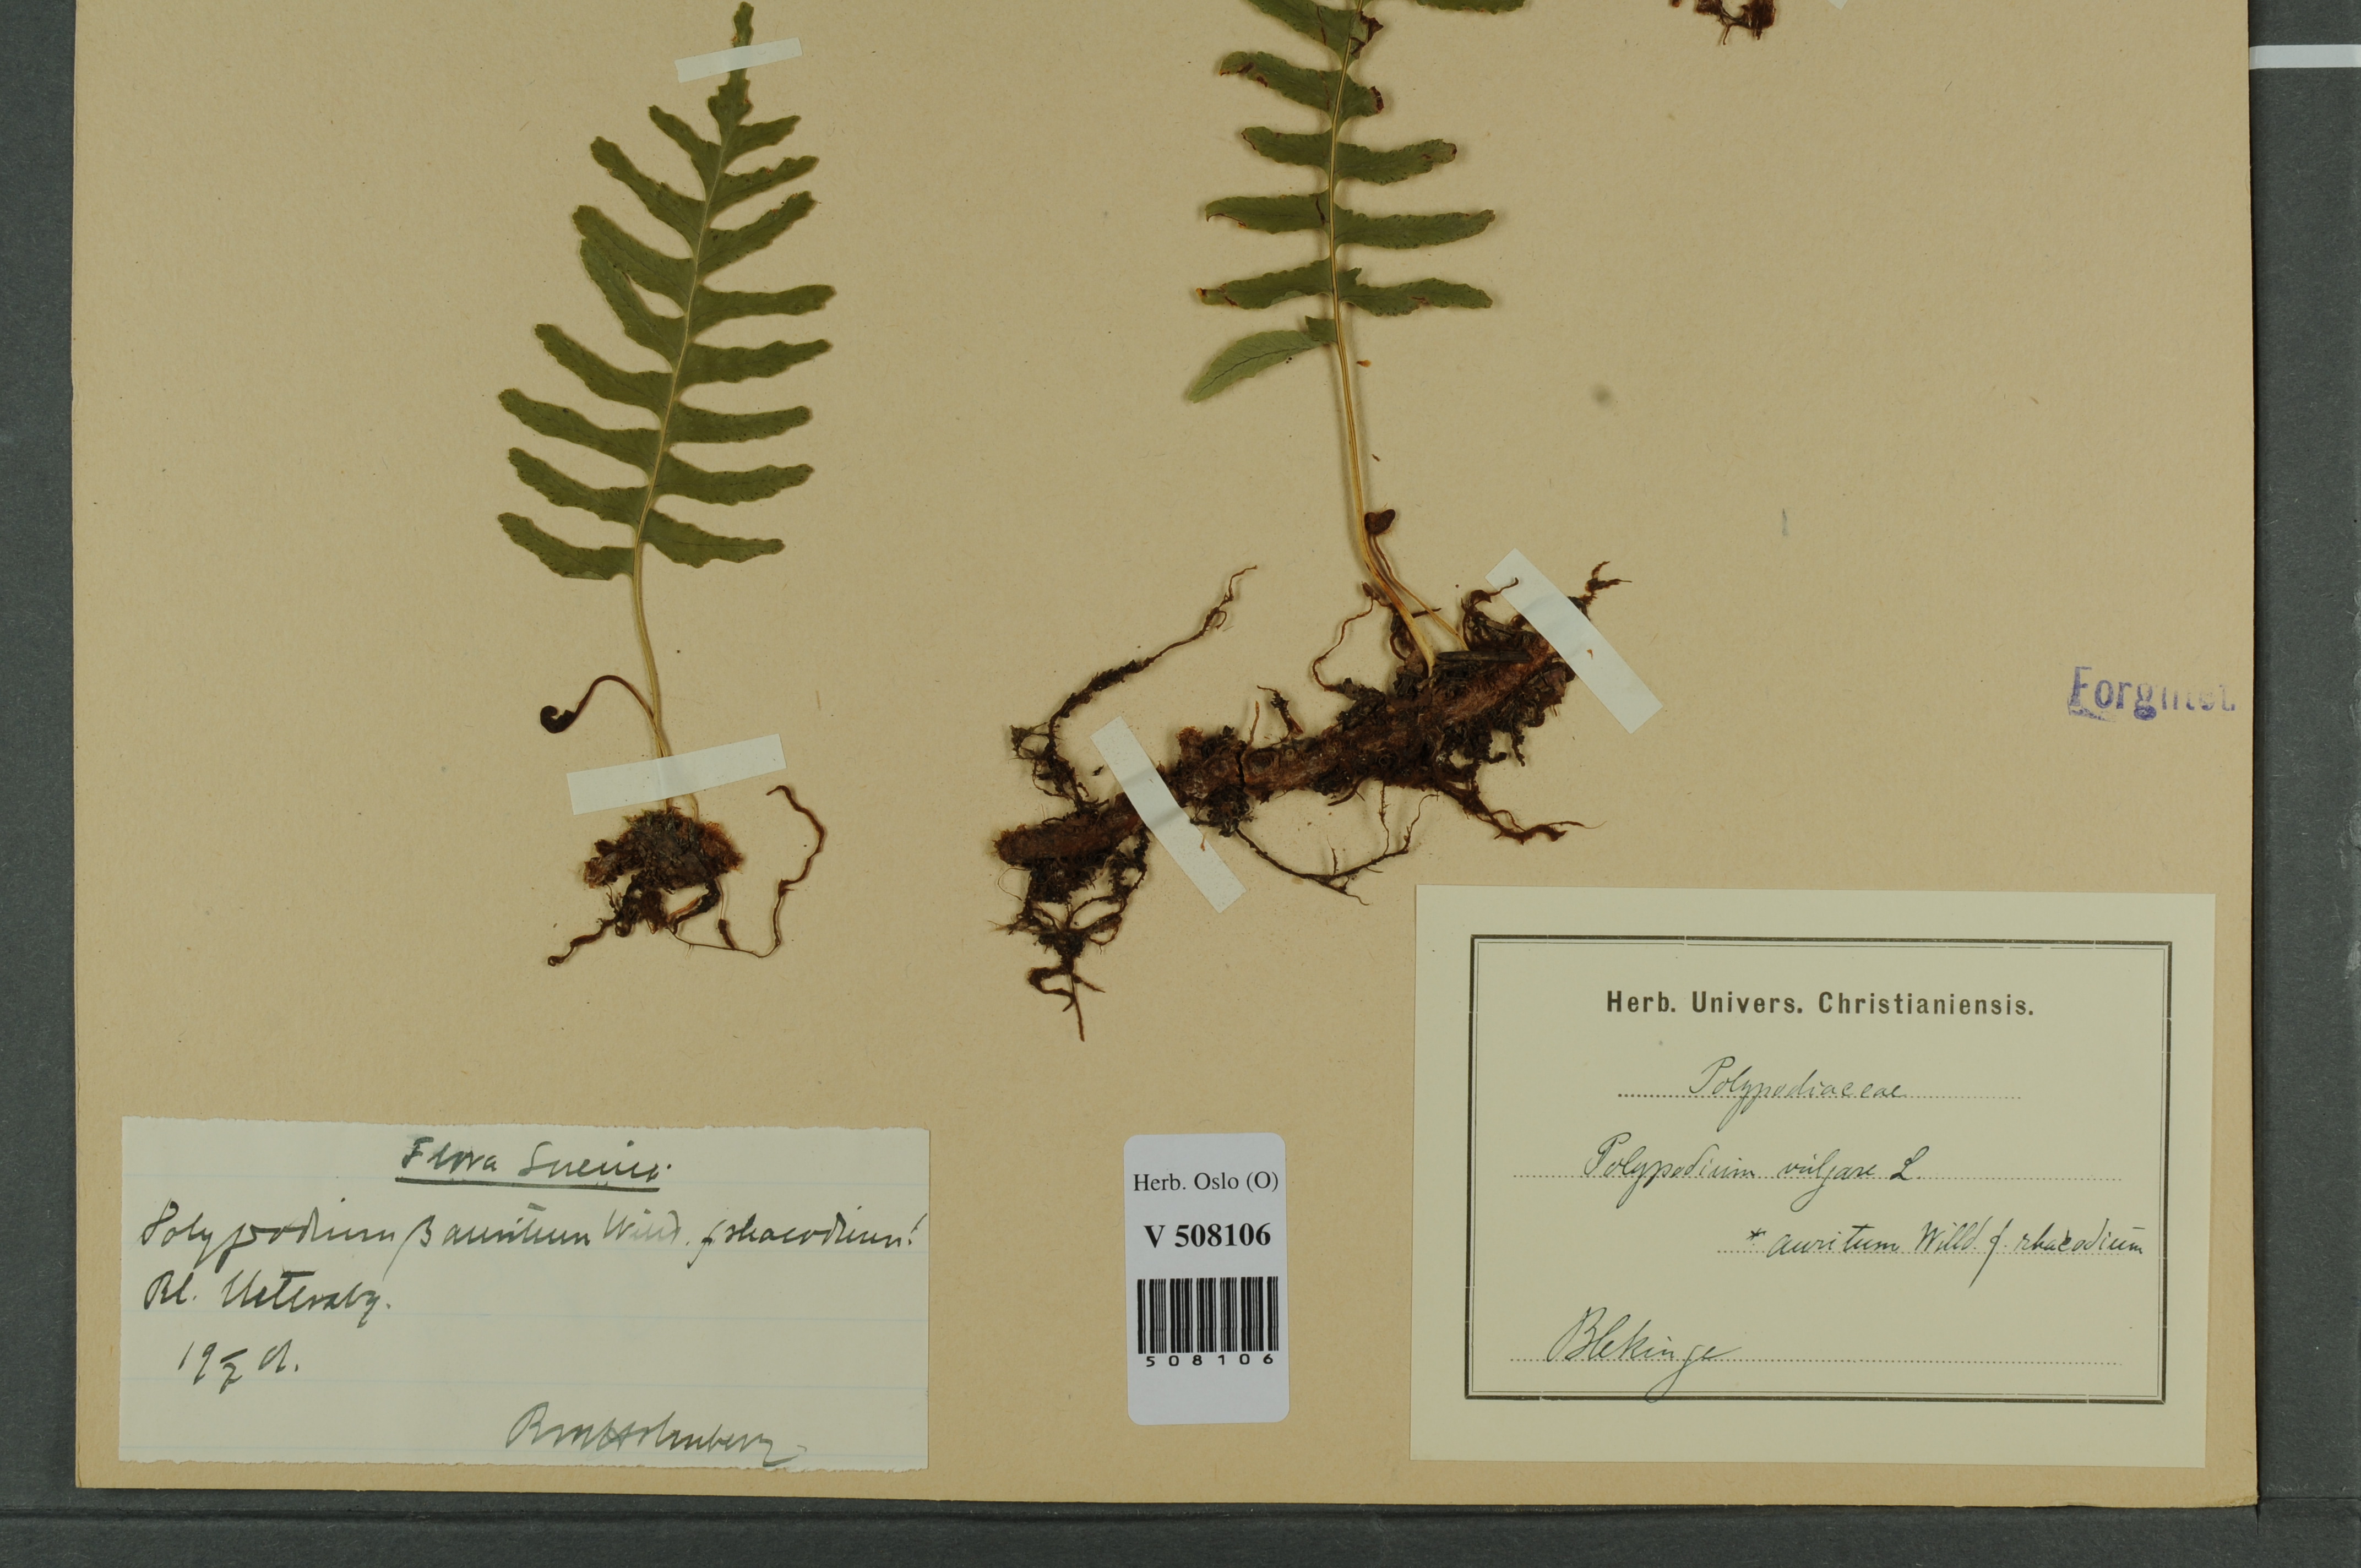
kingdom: Plantae
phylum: Tracheophyta
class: Polypodiopsida
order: Polypodiales
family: Polypodiaceae
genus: Polypodium
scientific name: Polypodium vulgare
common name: Common polypody
